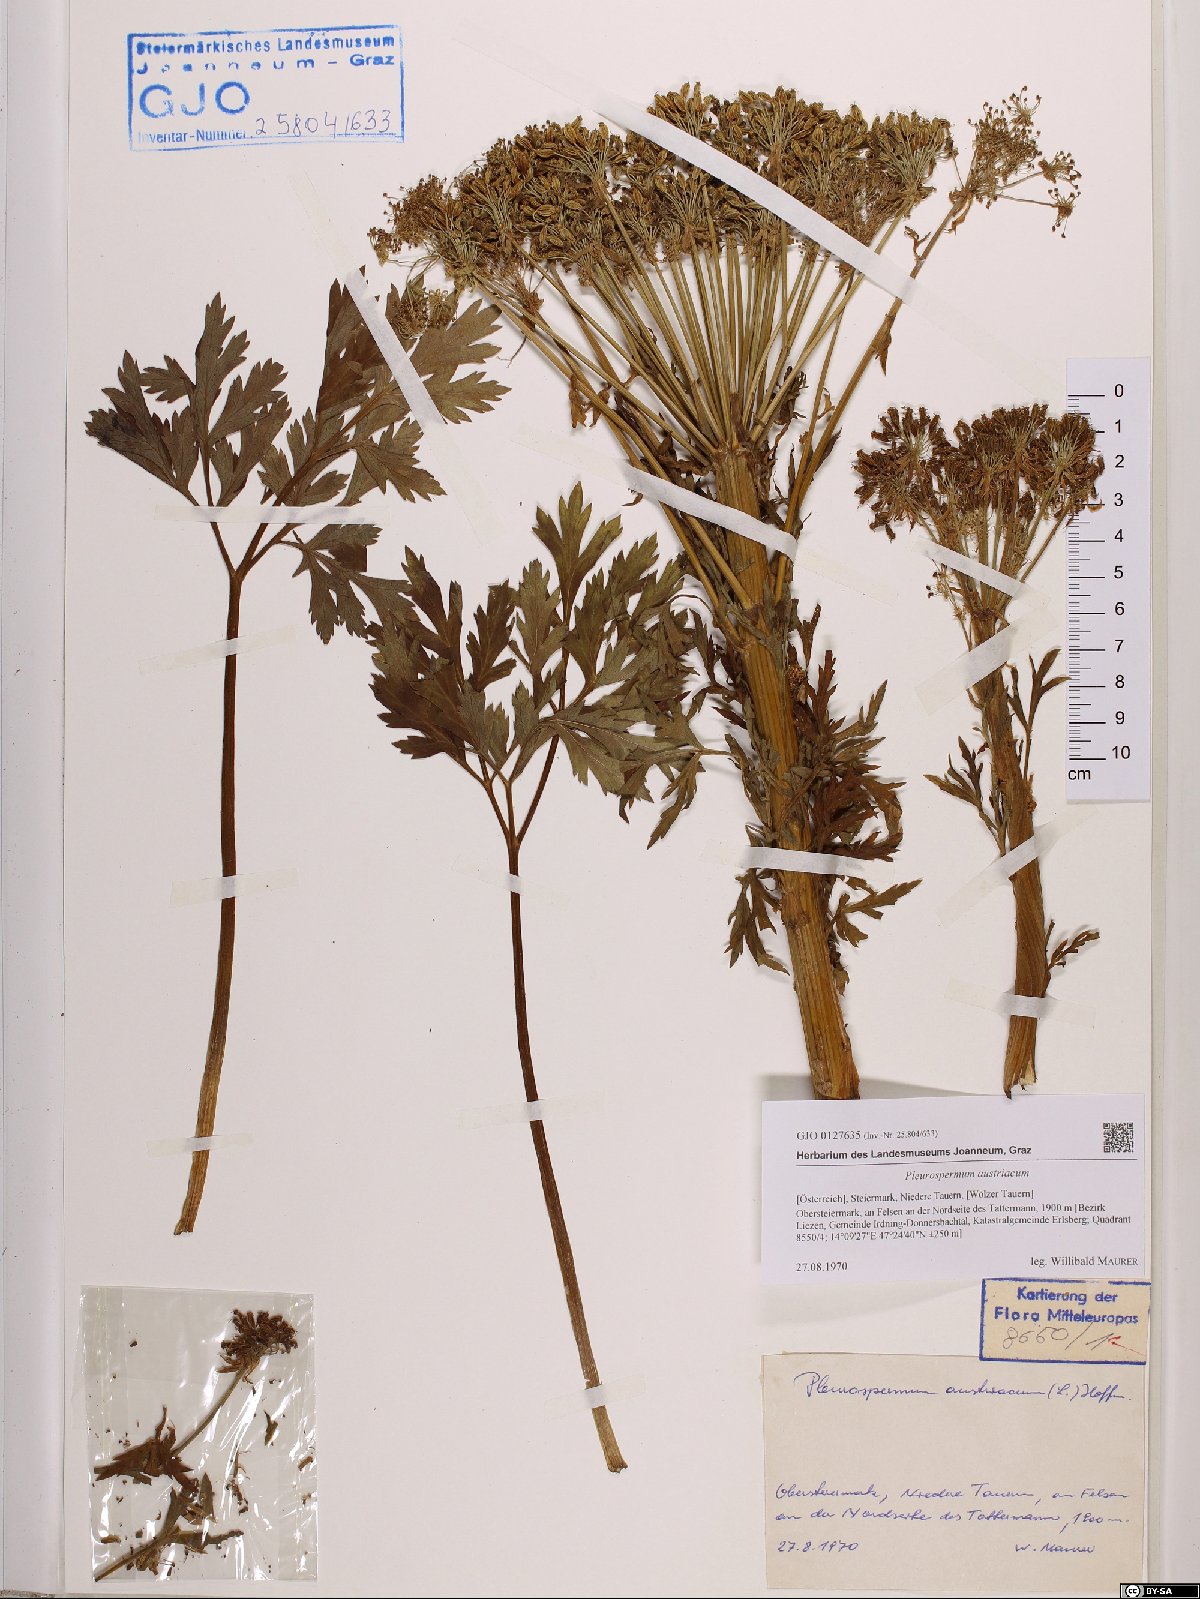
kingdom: Plantae
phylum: Tracheophyta
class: Magnoliopsida
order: Apiales
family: Apiaceae
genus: Pleurospermum
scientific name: Pleurospermum austriacum
